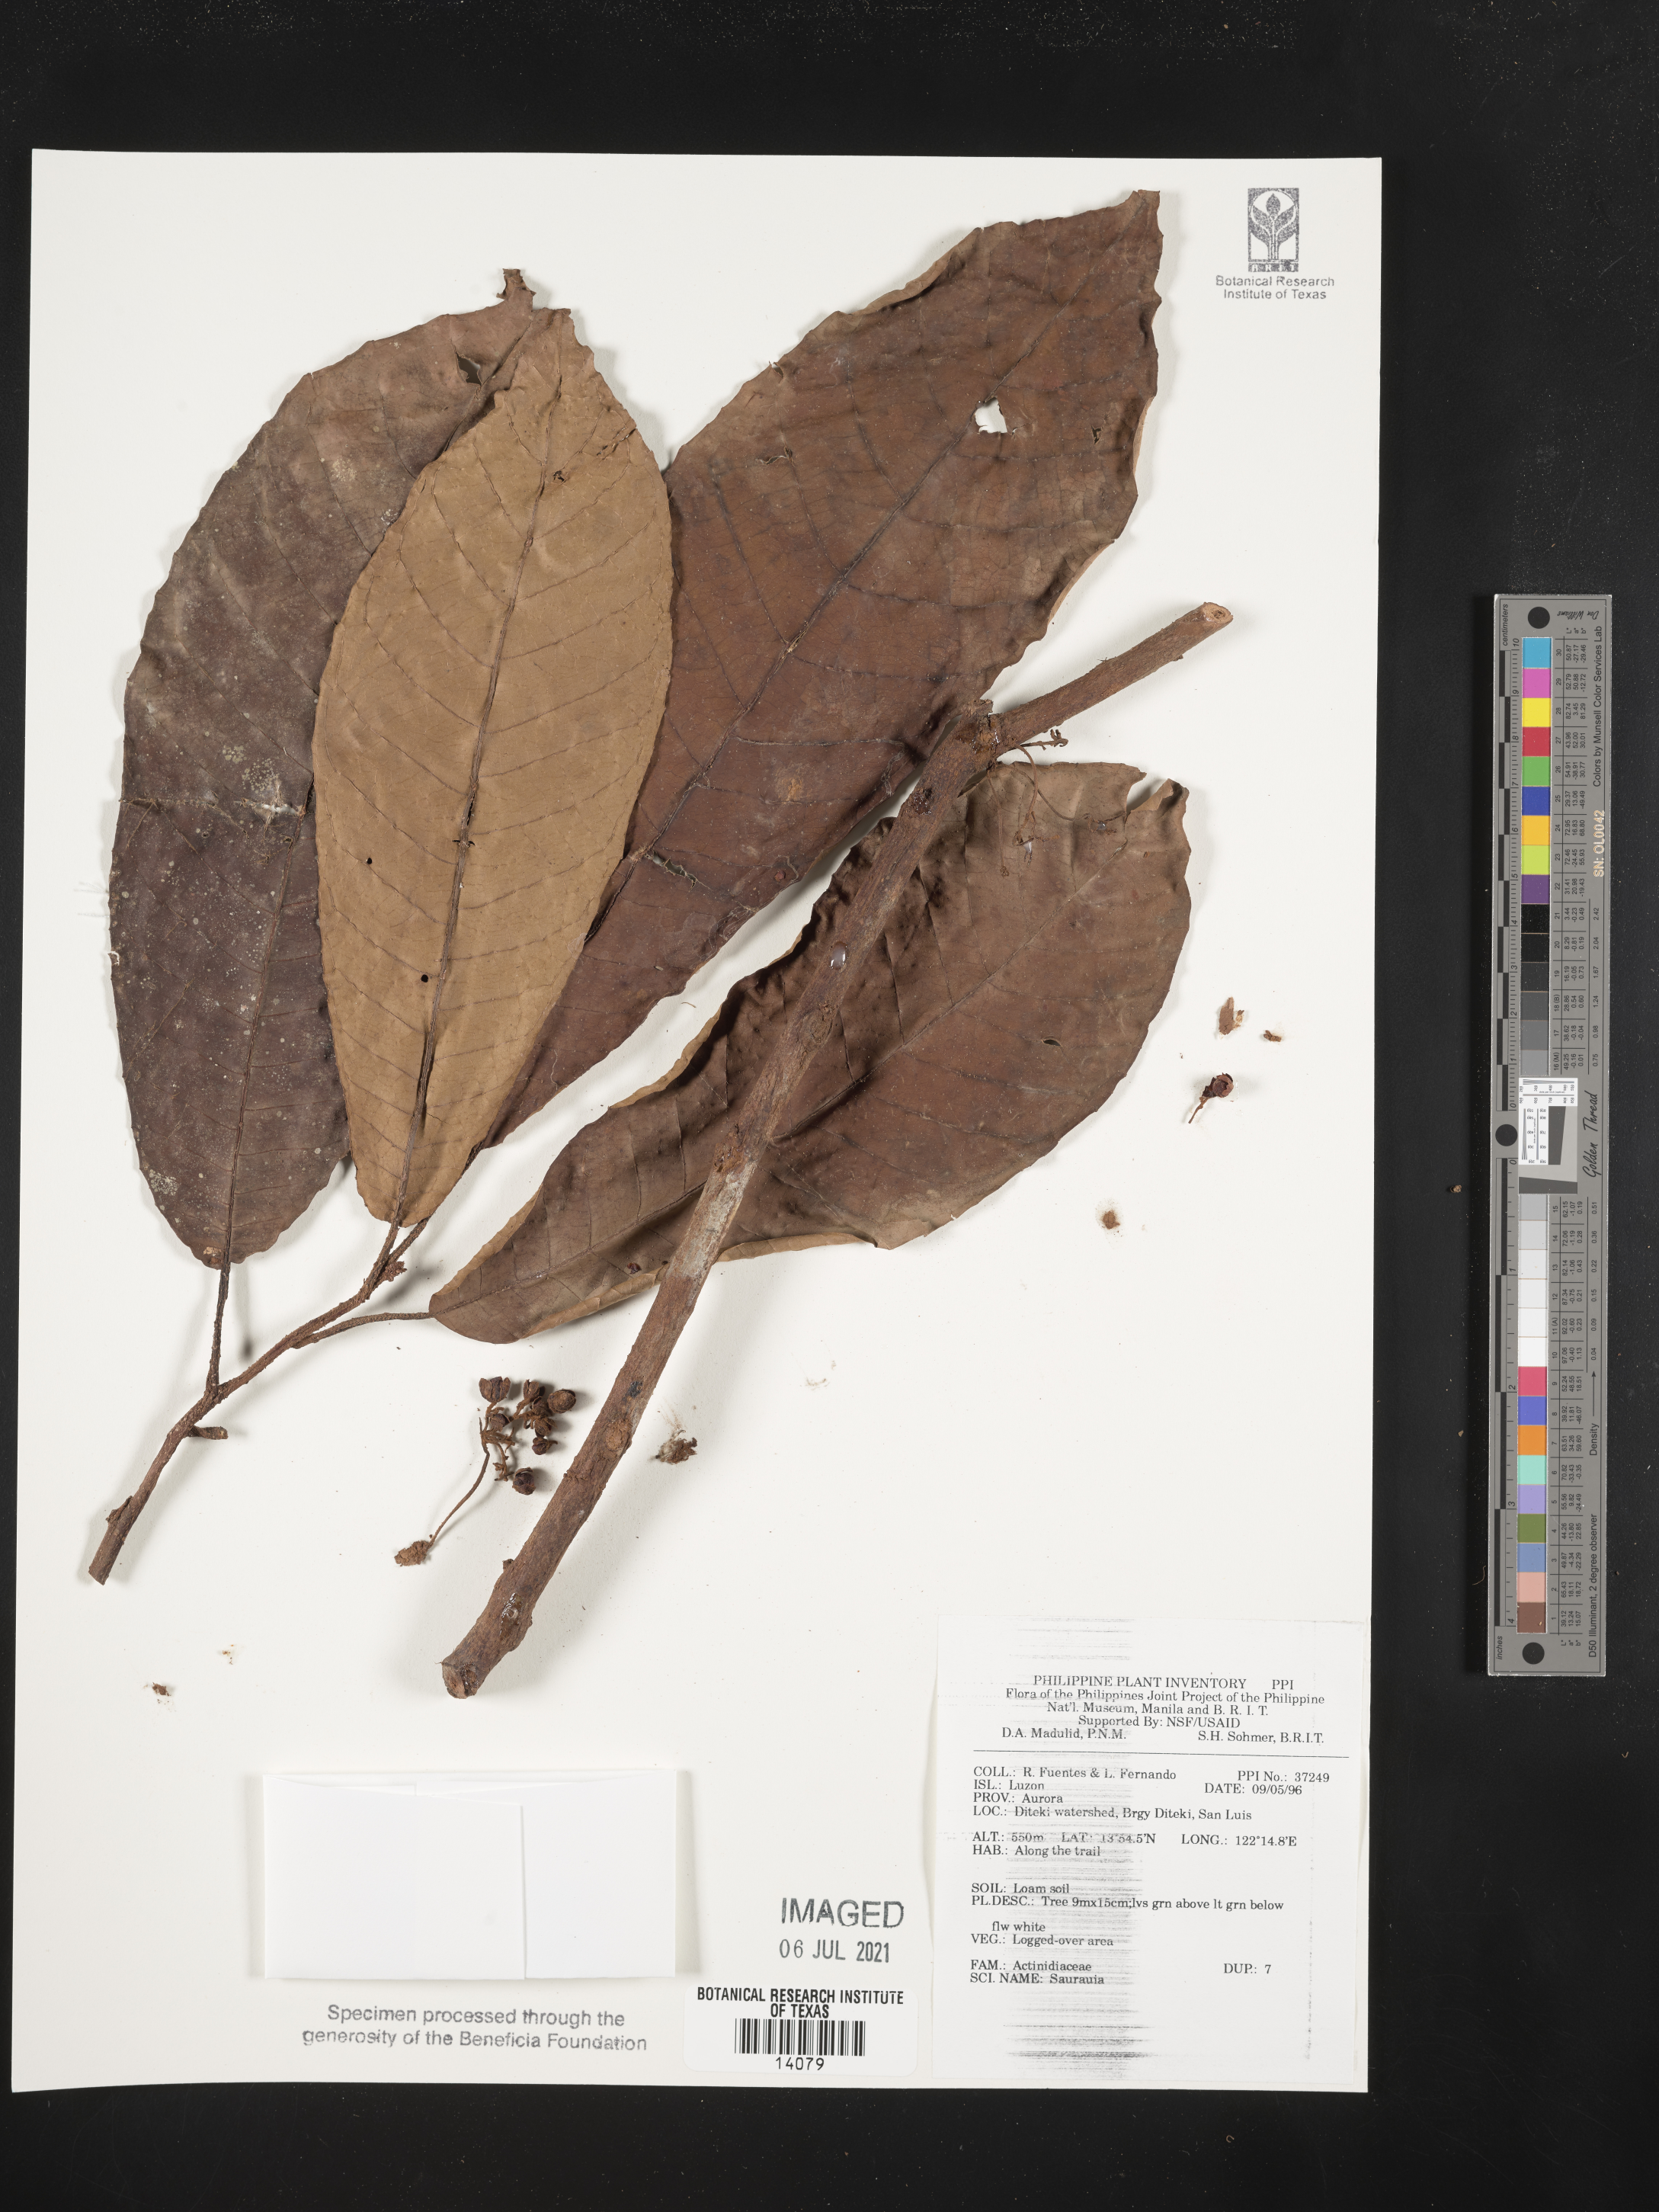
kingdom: Plantae
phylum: Tracheophyta
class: Magnoliopsida
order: Ericales
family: Actinidiaceae
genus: Saurauia
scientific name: Saurauia
